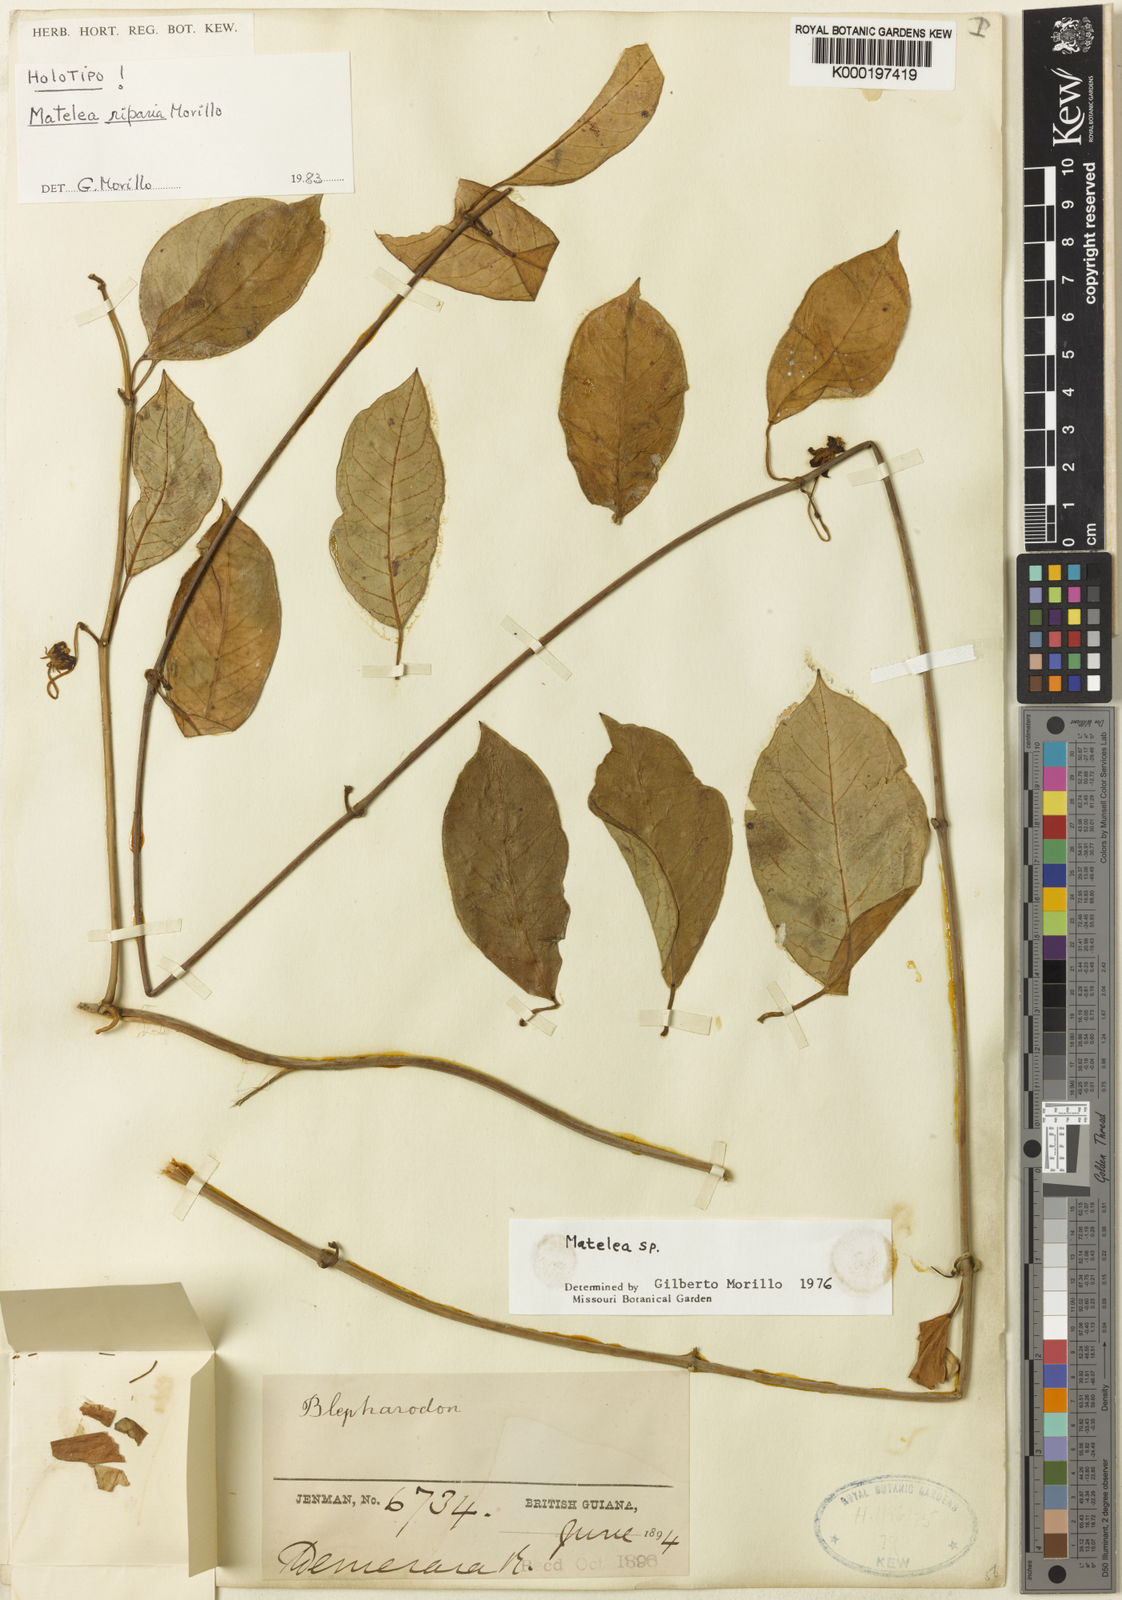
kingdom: Plantae
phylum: Tracheophyta
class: Magnoliopsida
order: Gentianales
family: Apocynaceae
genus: Atrostemma
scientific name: Atrostemma riparium
